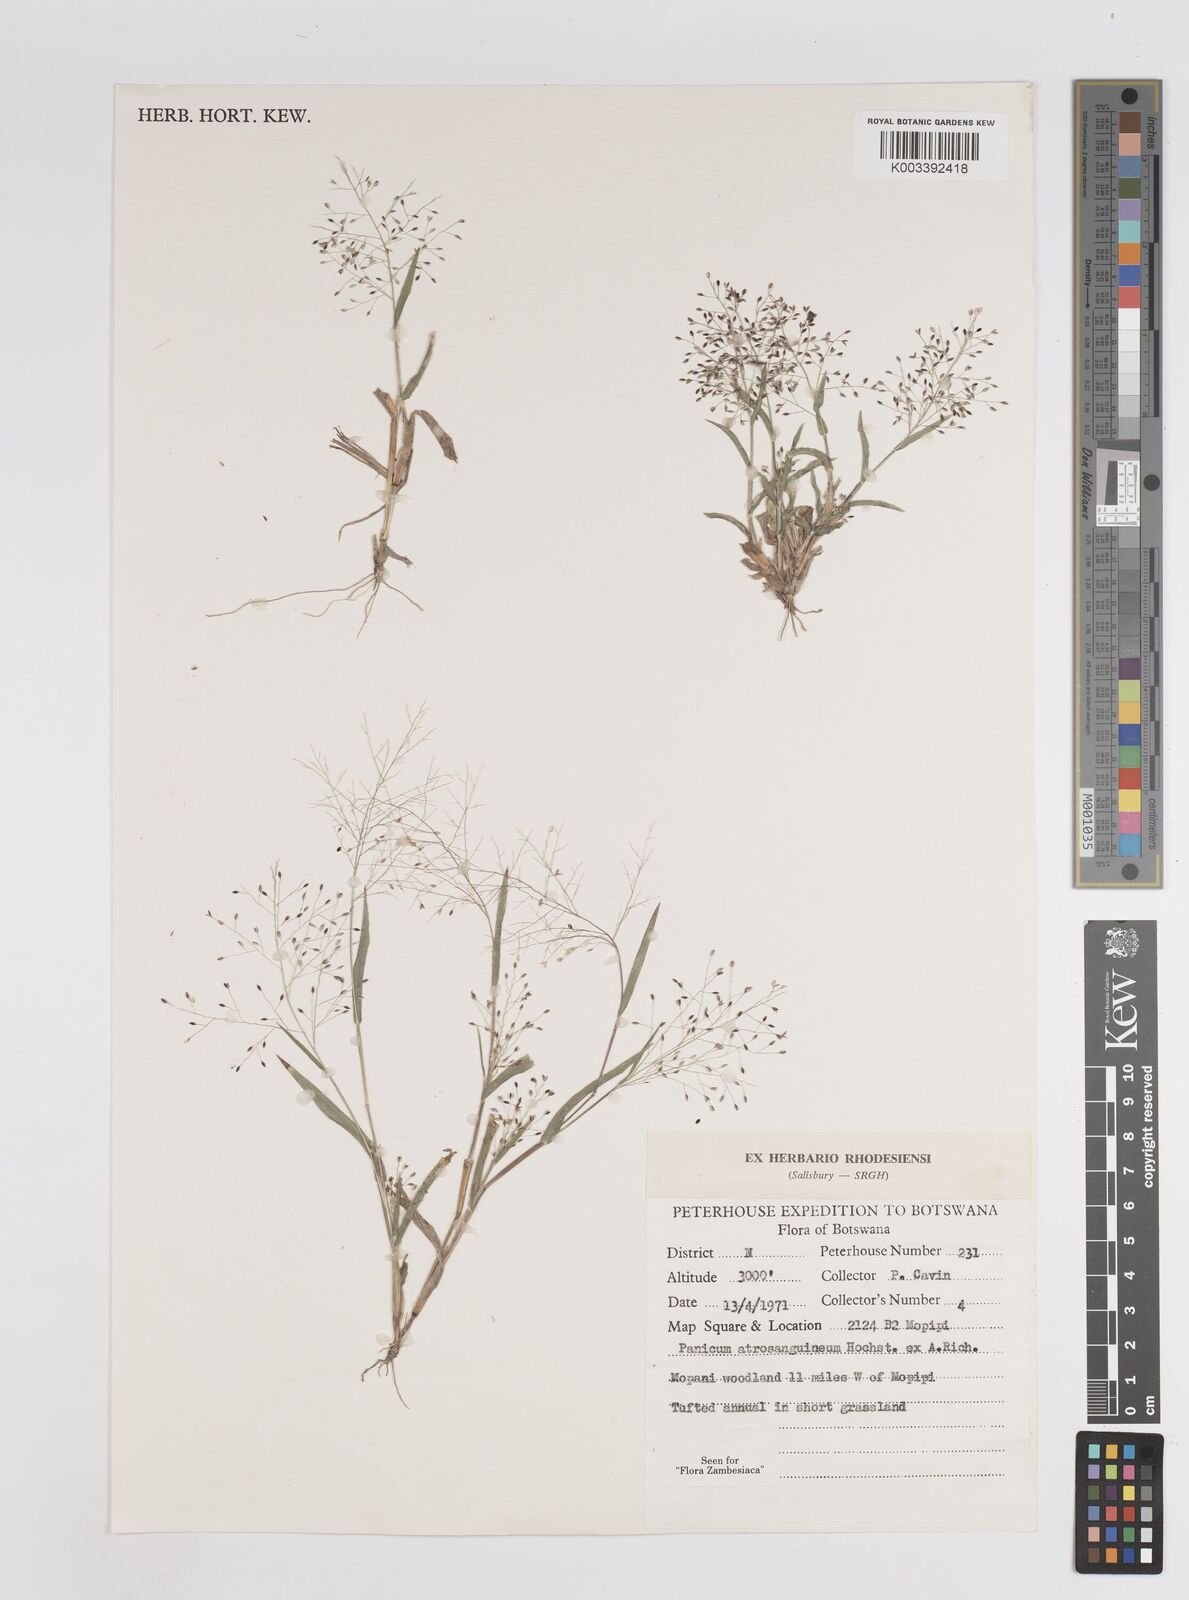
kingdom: Plantae
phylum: Tracheophyta
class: Liliopsida
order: Poales
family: Poaceae
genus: Panicum
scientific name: Panicum atrosanguineum
